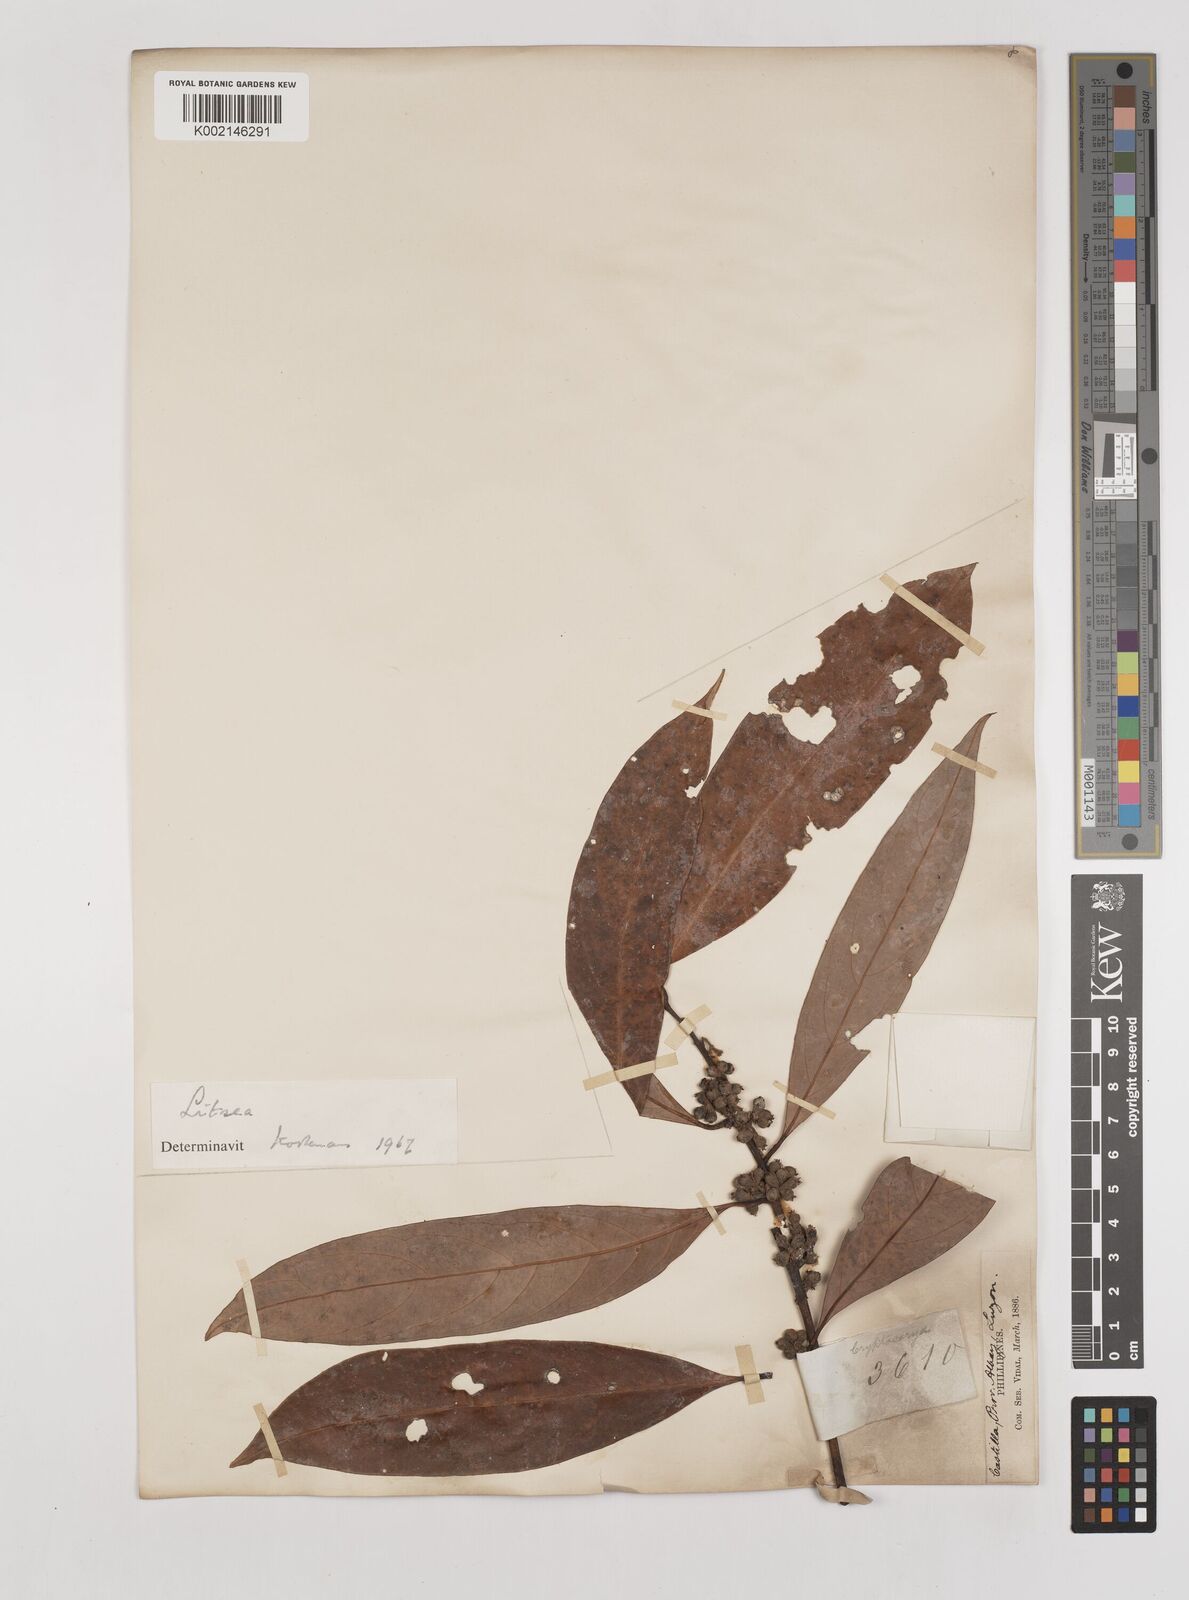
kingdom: Plantae
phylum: Tracheophyta
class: Magnoliopsida
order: Laurales
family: Lauraceae
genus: Litsea
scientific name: Litsea
